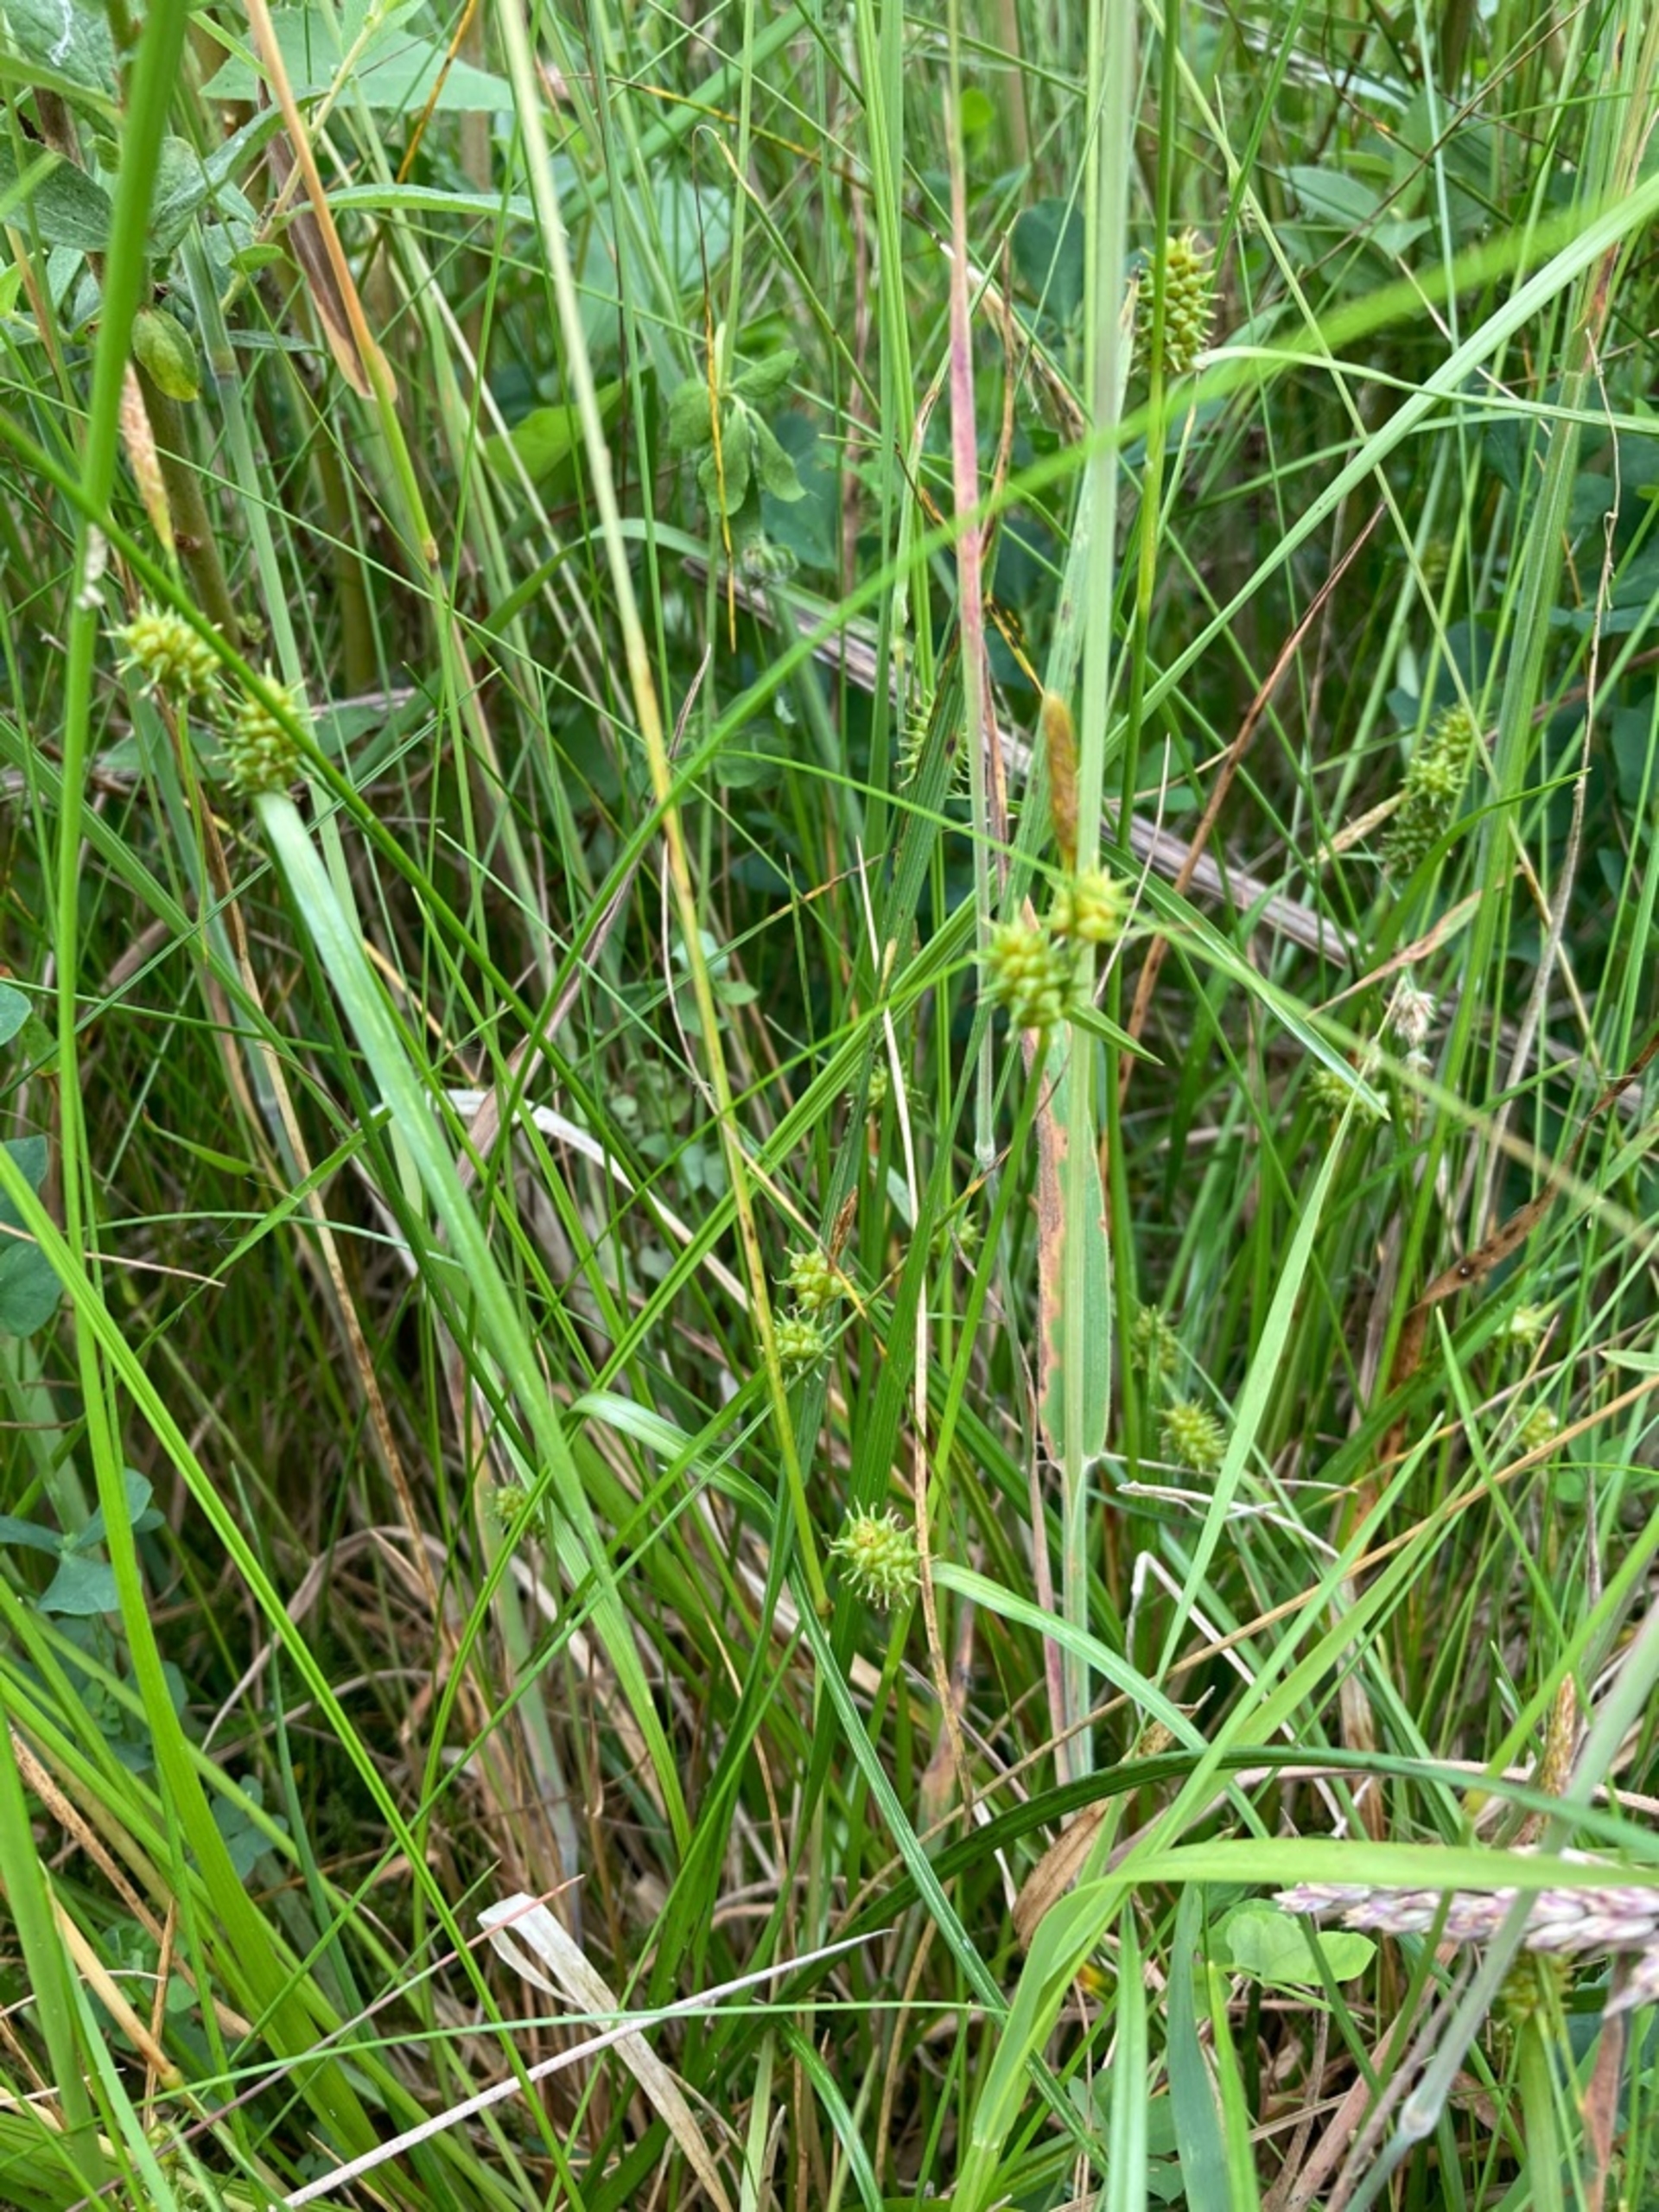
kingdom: Plantae
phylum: Tracheophyta
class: Liliopsida
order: Poales
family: Cyperaceae
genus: Carex
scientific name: Carex demissa
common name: Grøn star
